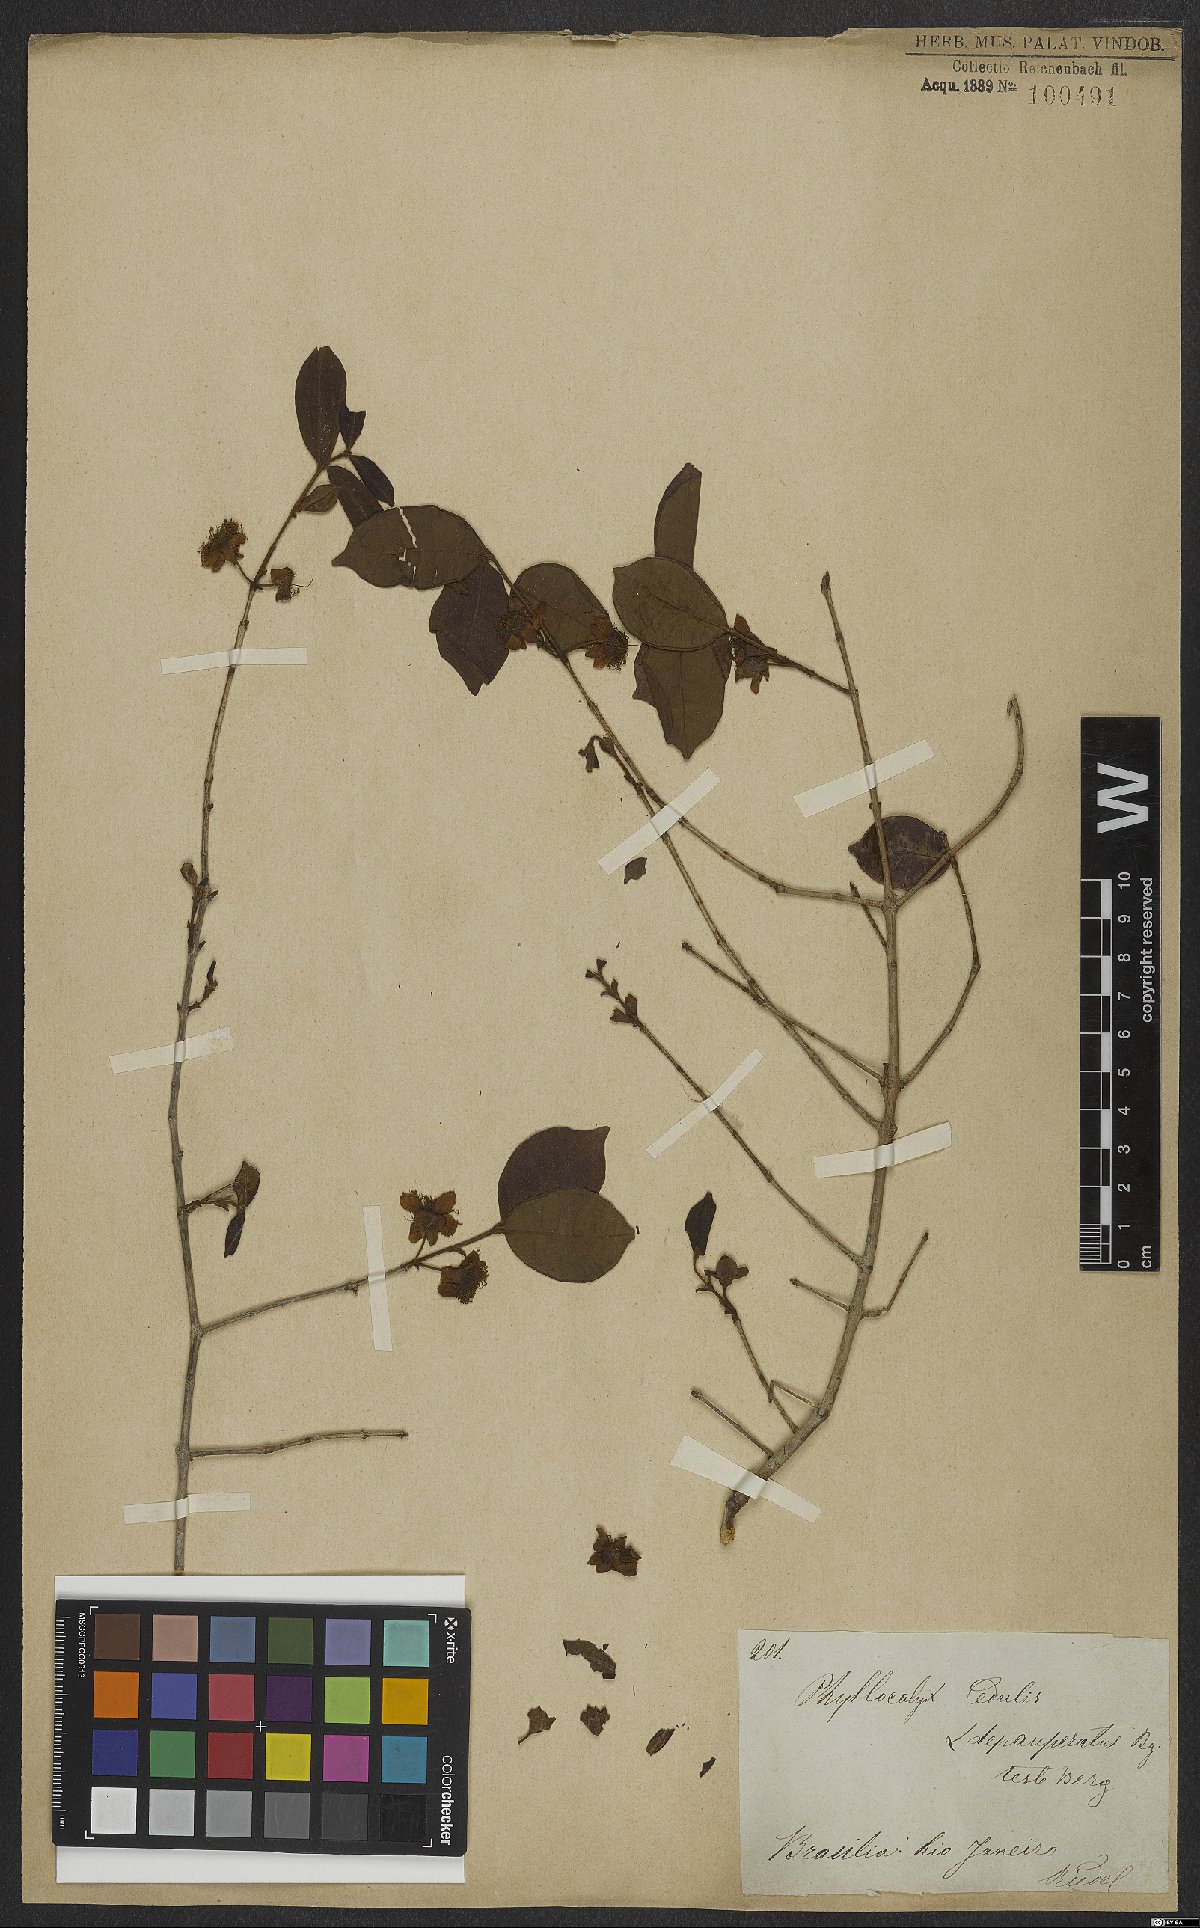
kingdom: Plantae
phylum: Tracheophyta
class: Magnoliopsida
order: Myrtales
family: Myrtaceae
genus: Eugenia
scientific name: Eugenia selloi
